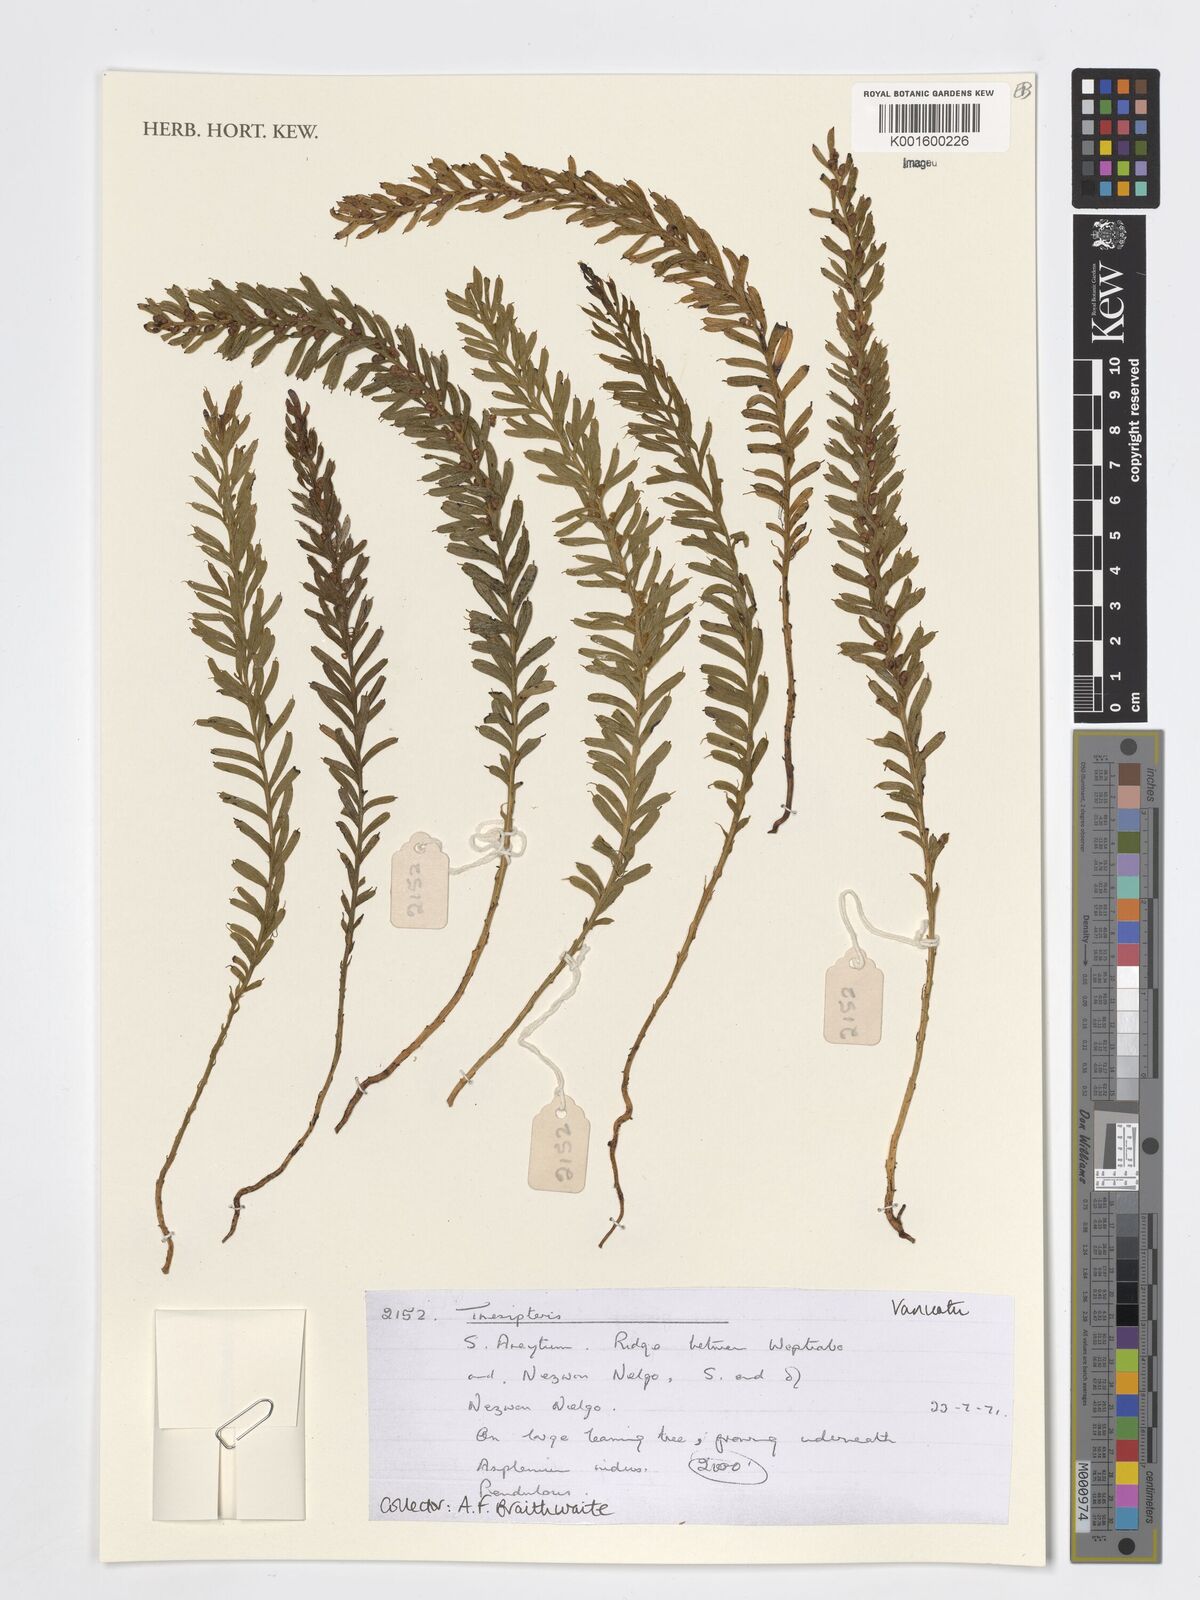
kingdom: Plantae
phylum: Tracheophyta
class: Polypodiopsida
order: Psilotales
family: Psilotaceae
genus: Tmesipteris
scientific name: Tmesipteris
